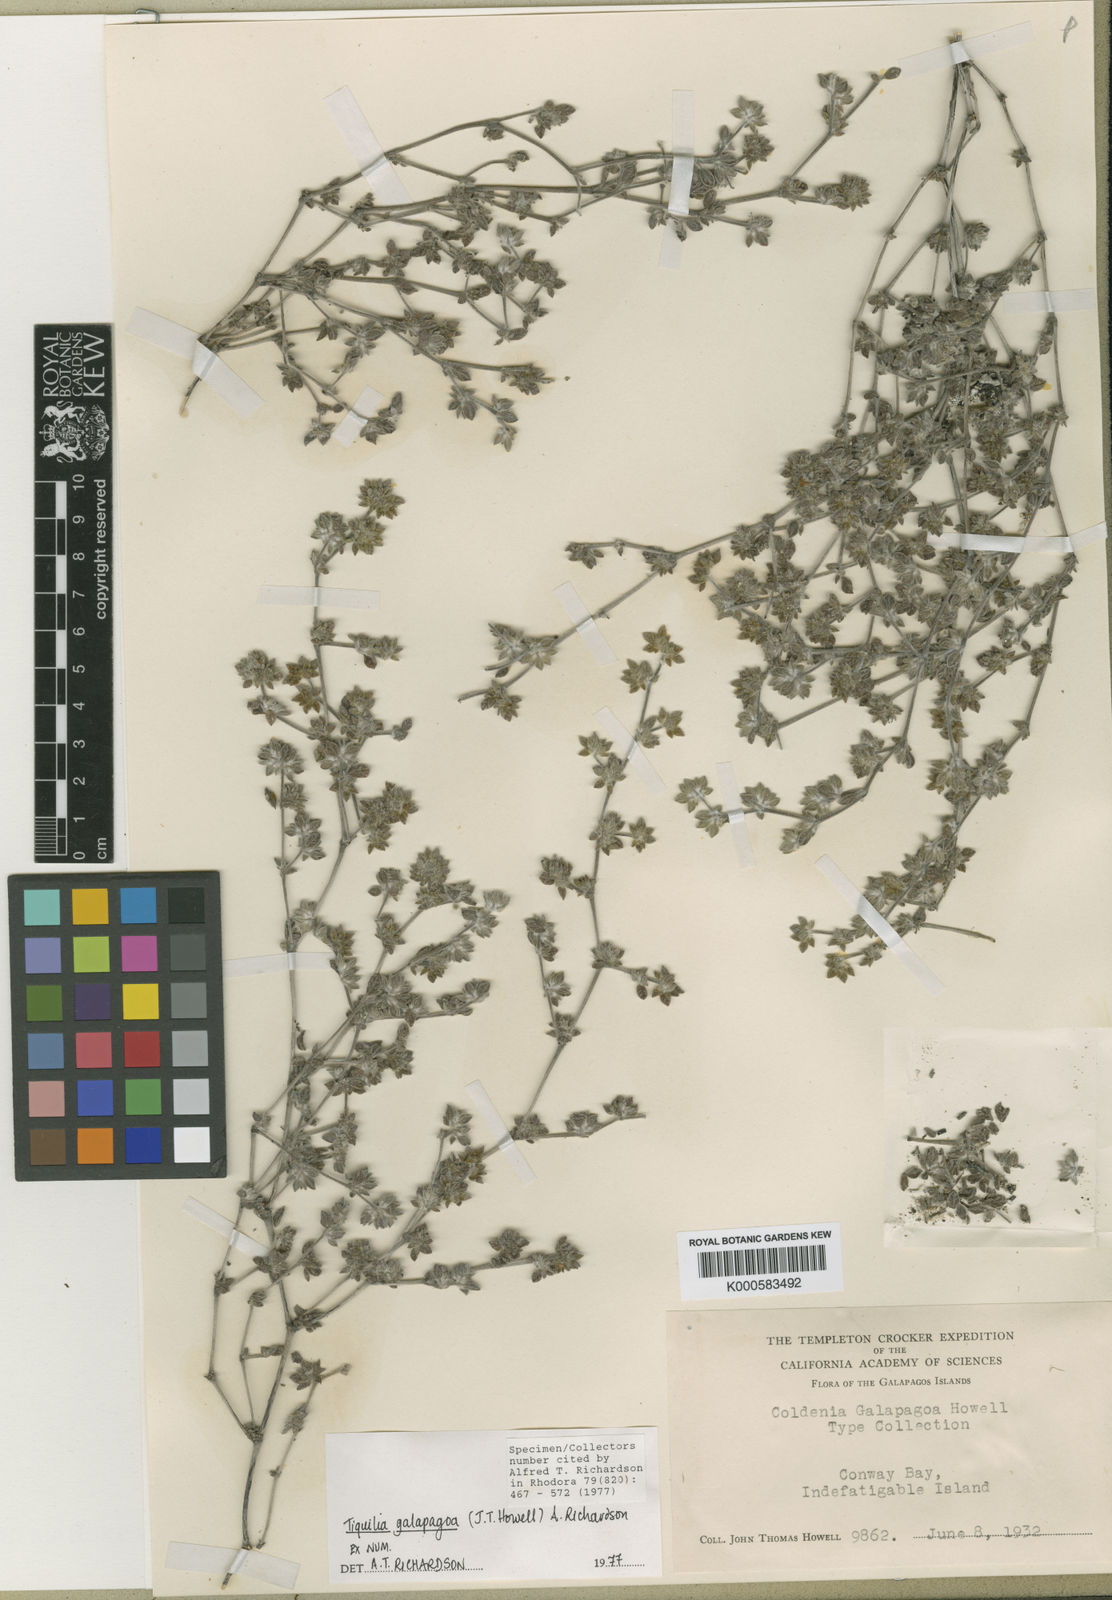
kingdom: Plantae
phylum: Tracheophyta
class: Magnoliopsida
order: Boraginales
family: Ehretiaceae
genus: Tiquilia
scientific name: Tiquilia galapagoa
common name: Gray matplant
